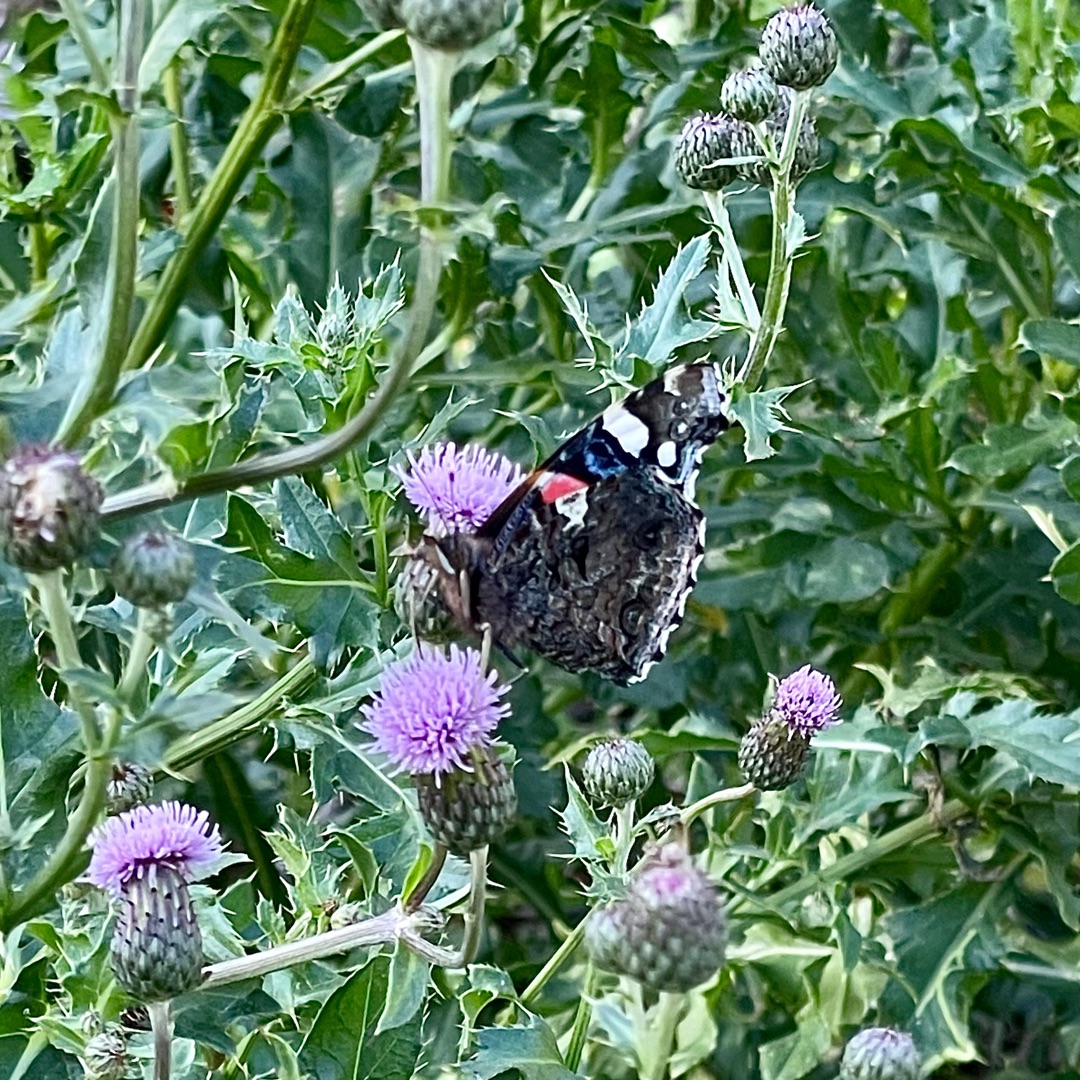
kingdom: Animalia
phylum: Arthropoda
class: Insecta
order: Lepidoptera
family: Nymphalidae
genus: Vanessa
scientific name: Vanessa atalanta
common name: Admiral
